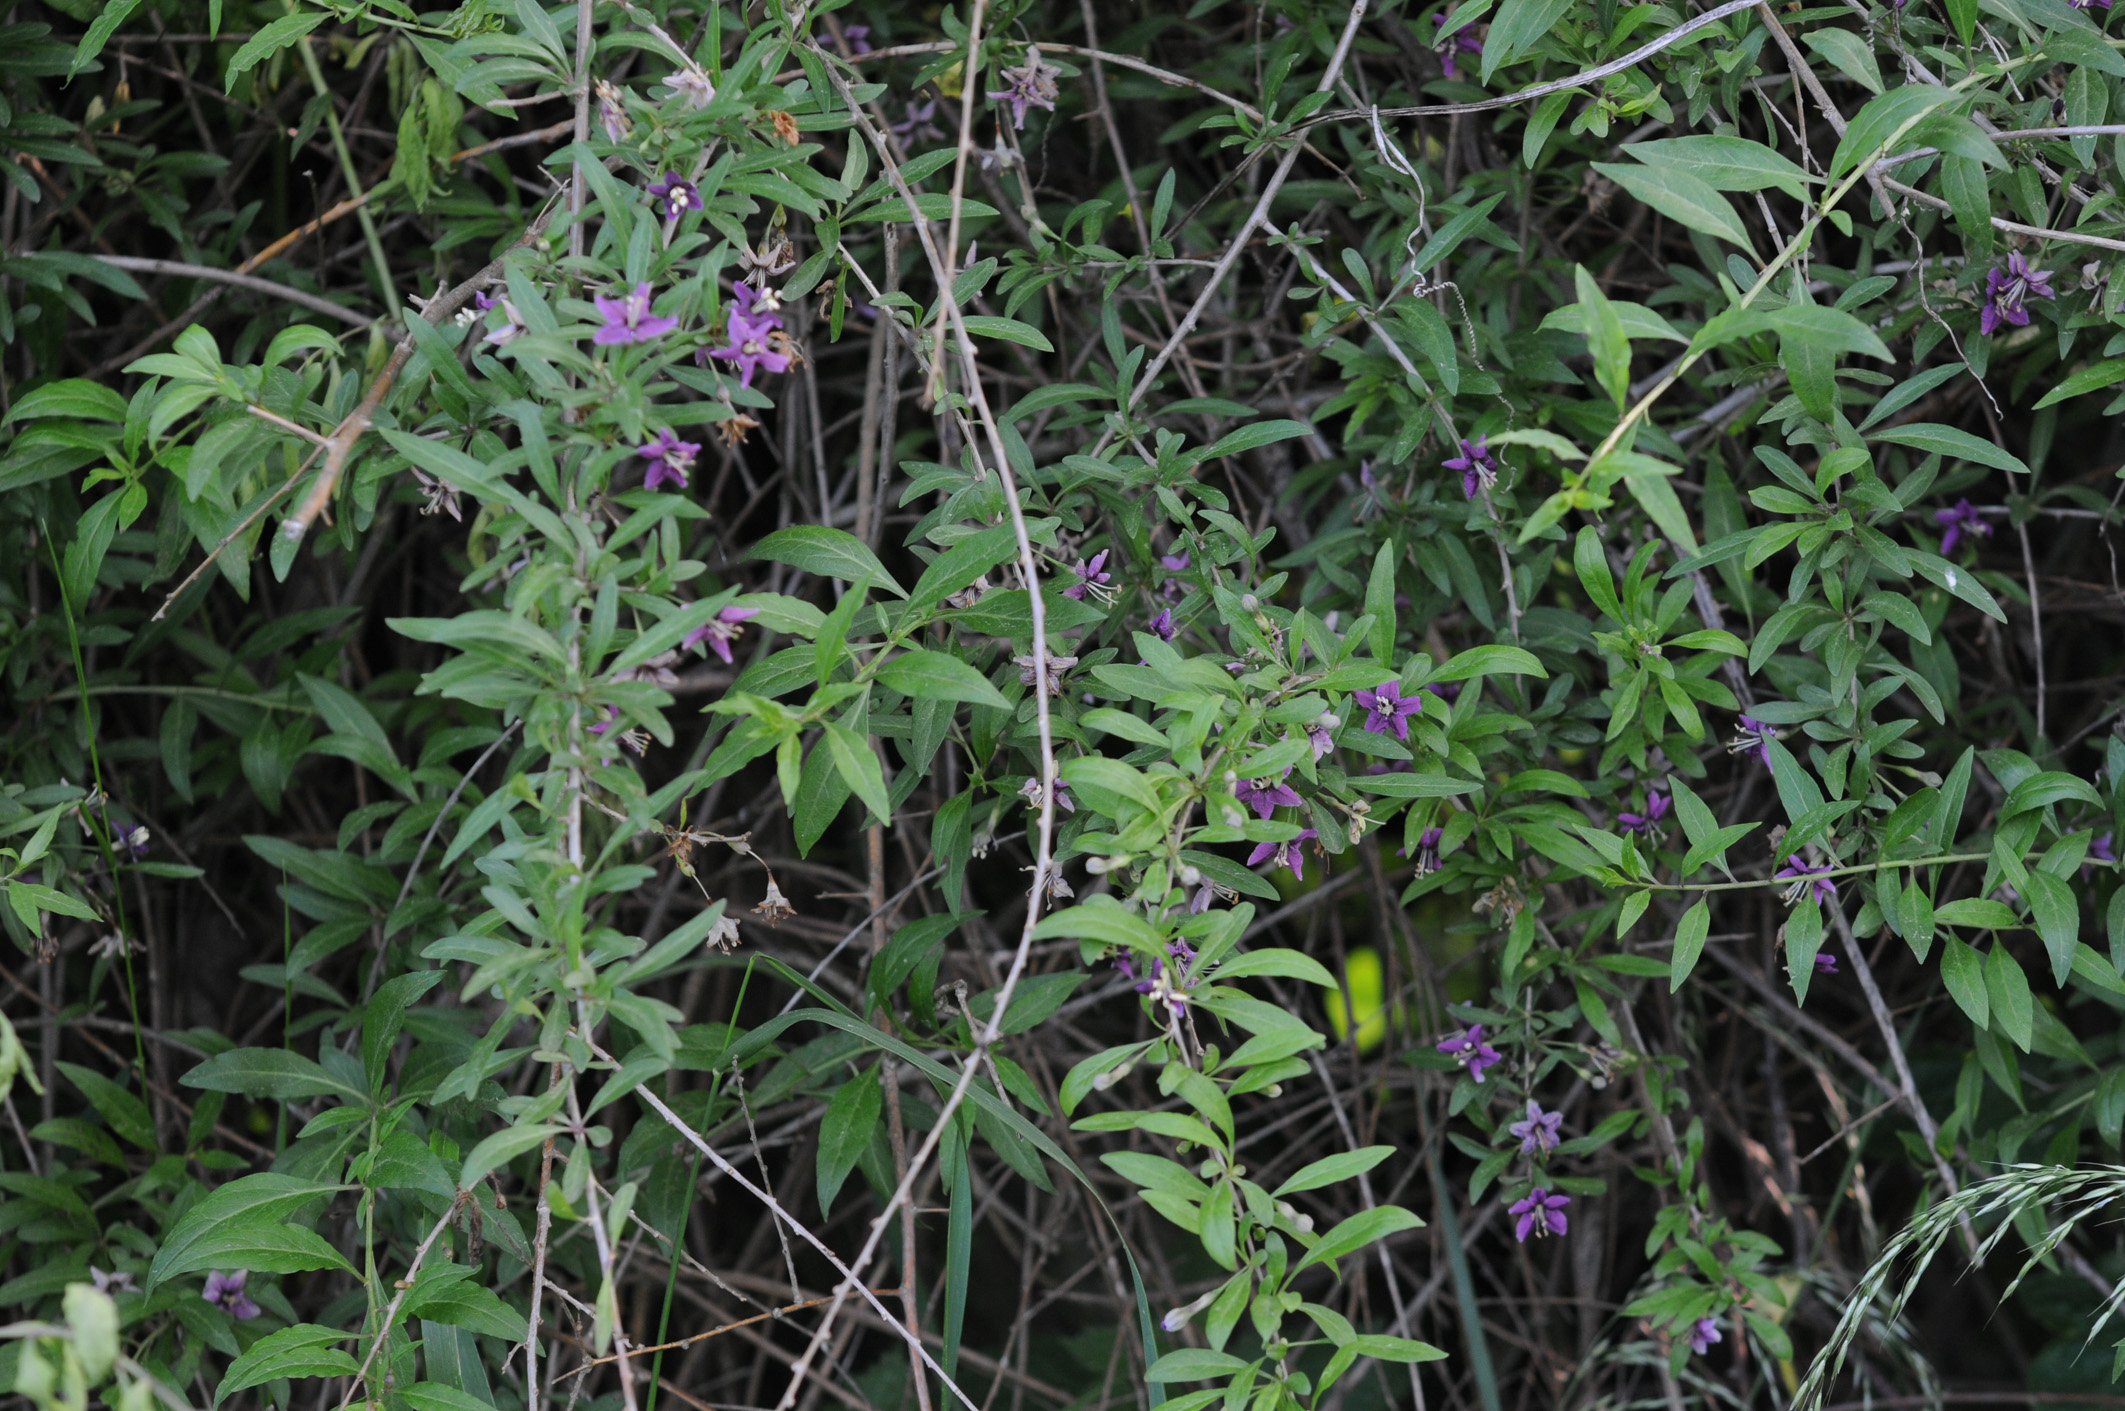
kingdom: Plantae
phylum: Tracheophyta
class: Magnoliopsida
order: Solanales
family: Solanaceae
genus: Lycium
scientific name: Lycium barbarum
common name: Duke of argyll's teaplant
